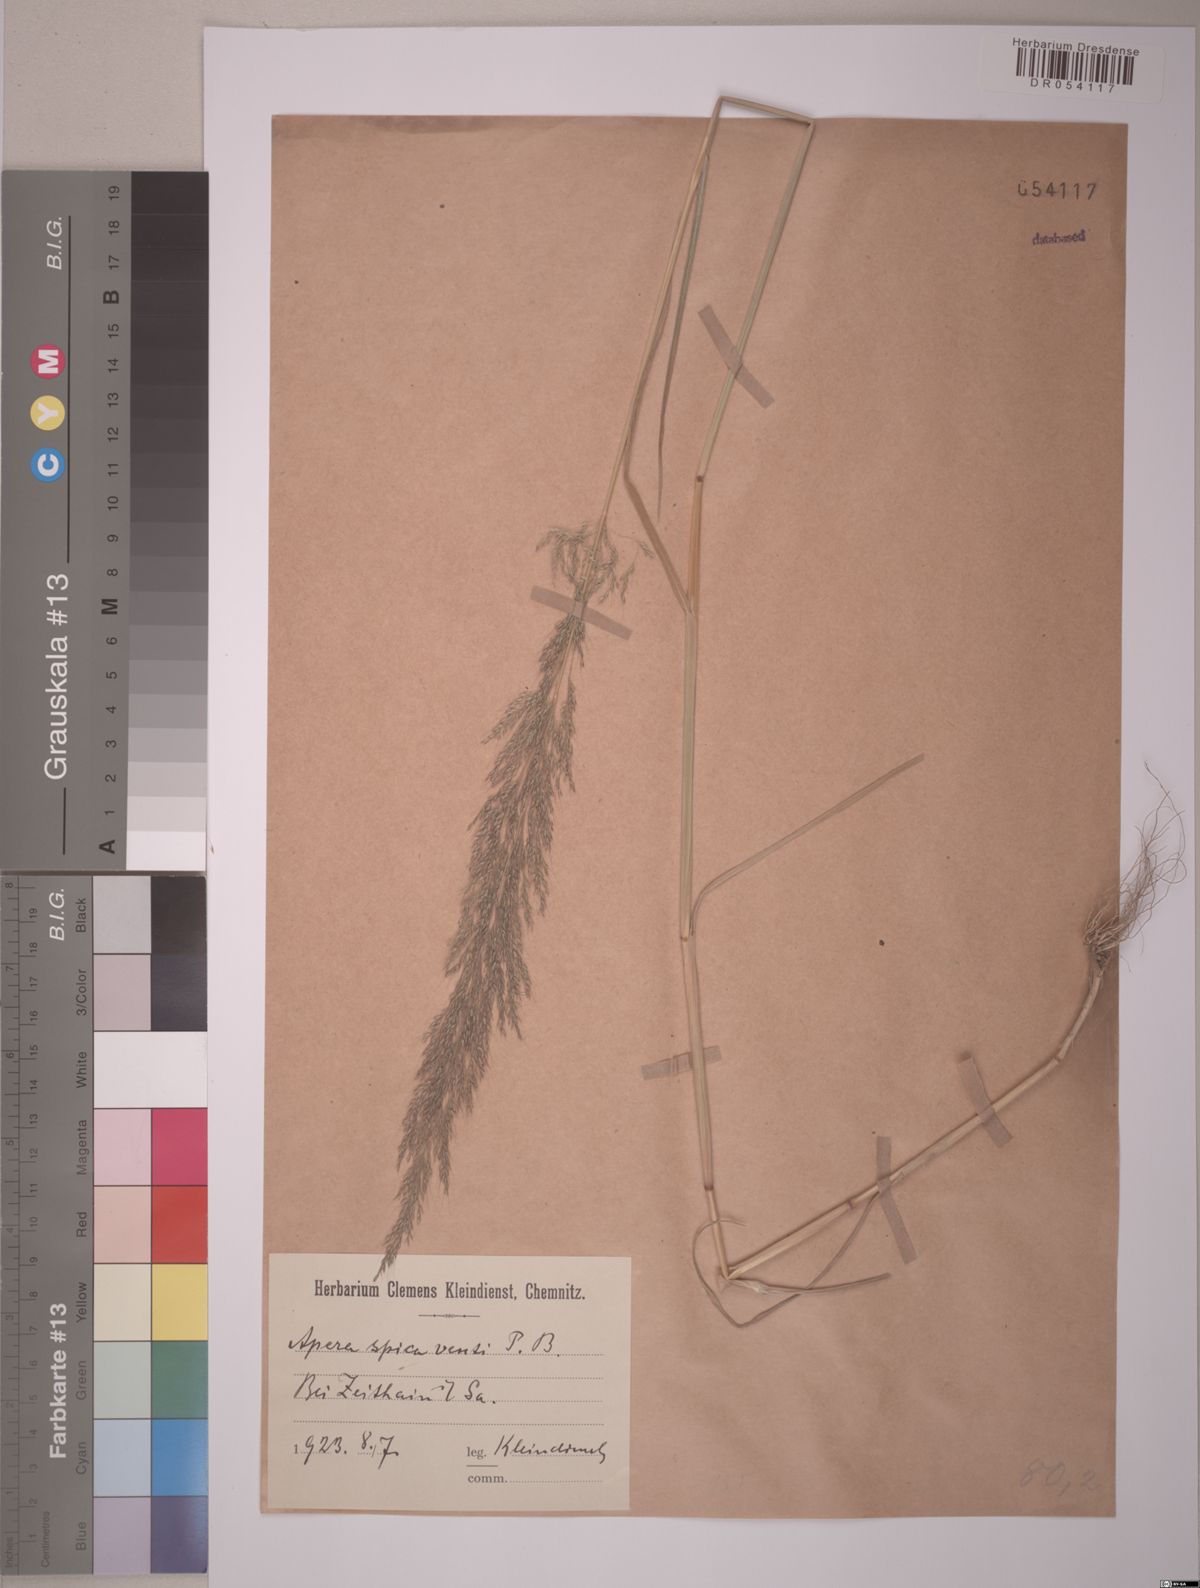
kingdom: Plantae
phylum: Tracheophyta
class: Liliopsida
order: Poales
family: Poaceae
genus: Apera
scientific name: Apera spica-venti
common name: Loose silky-bent
